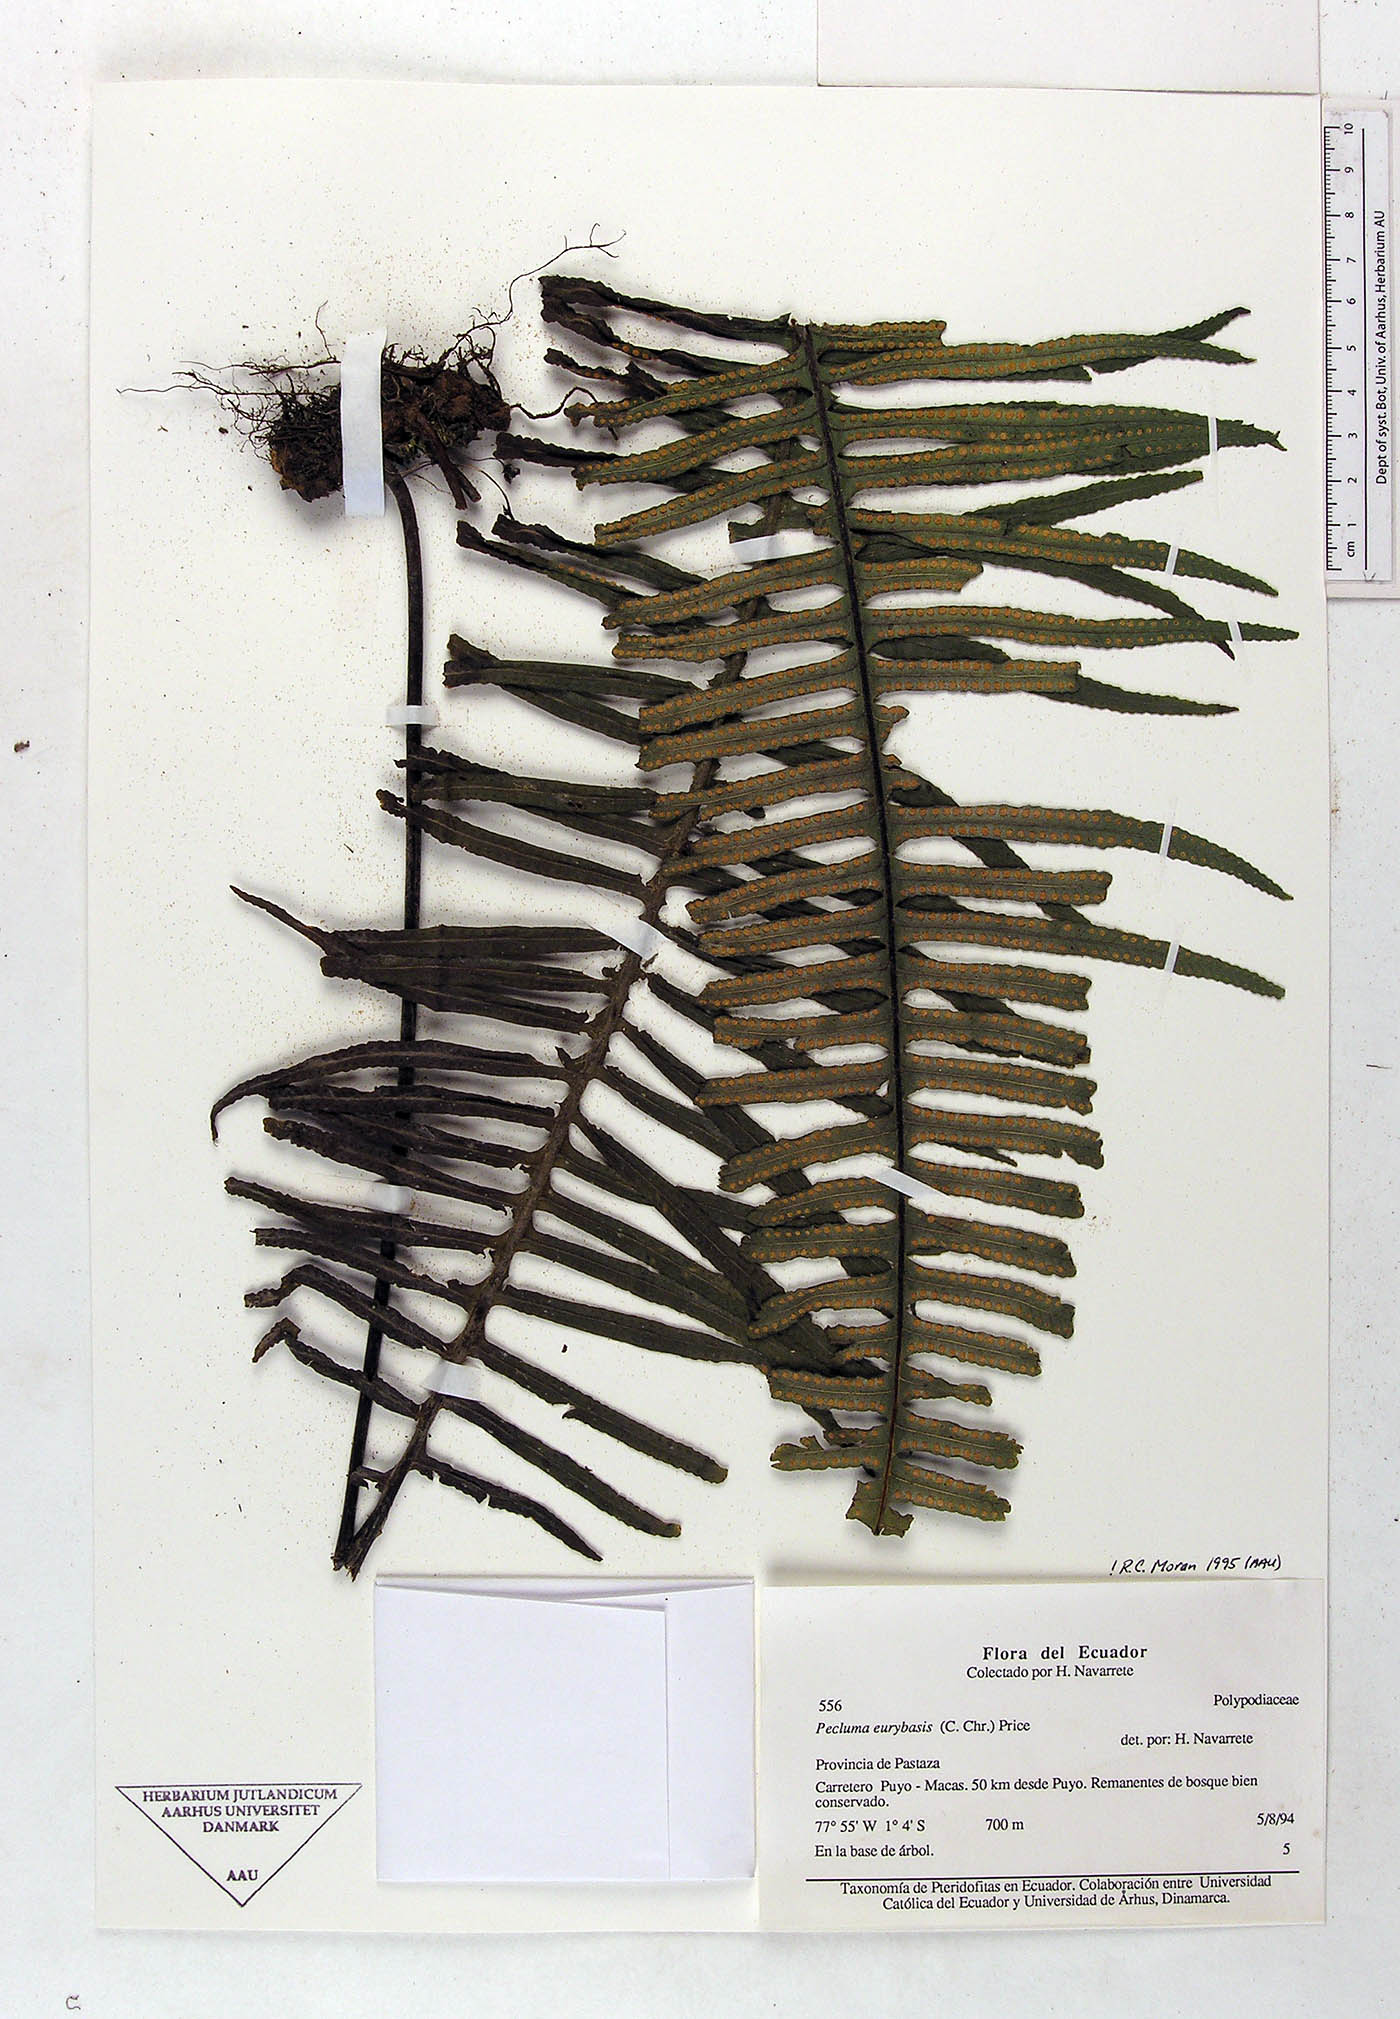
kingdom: Plantae
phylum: Tracheophyta
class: Polypodiopsida
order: Polypodiales
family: Polypodiaceae
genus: Pecluma
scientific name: Pecluma
